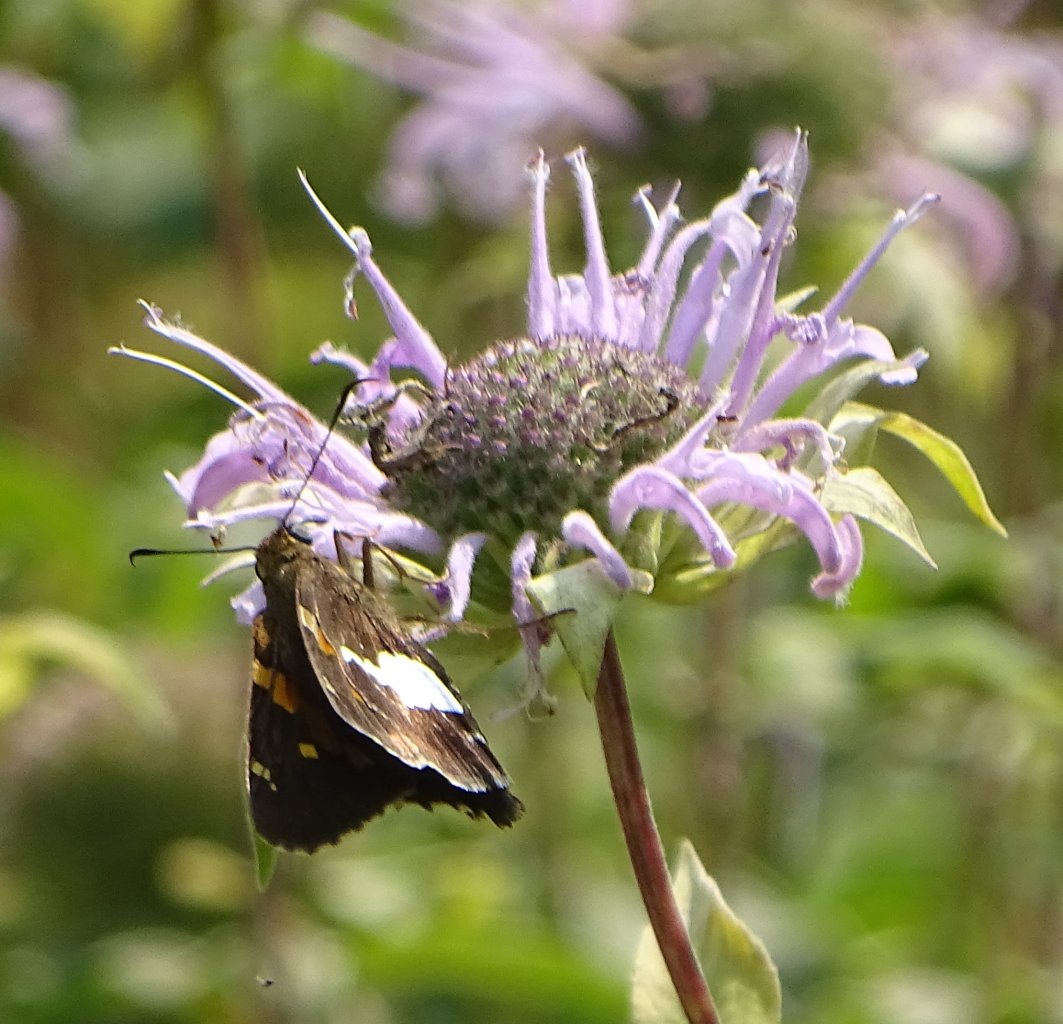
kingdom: Animalia
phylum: Arthropoda
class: Insecta
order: Lepidoptera
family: Hesperiidae
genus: Epargyreus
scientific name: Epargyreus clarus
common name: Silver-spotted Skipper
